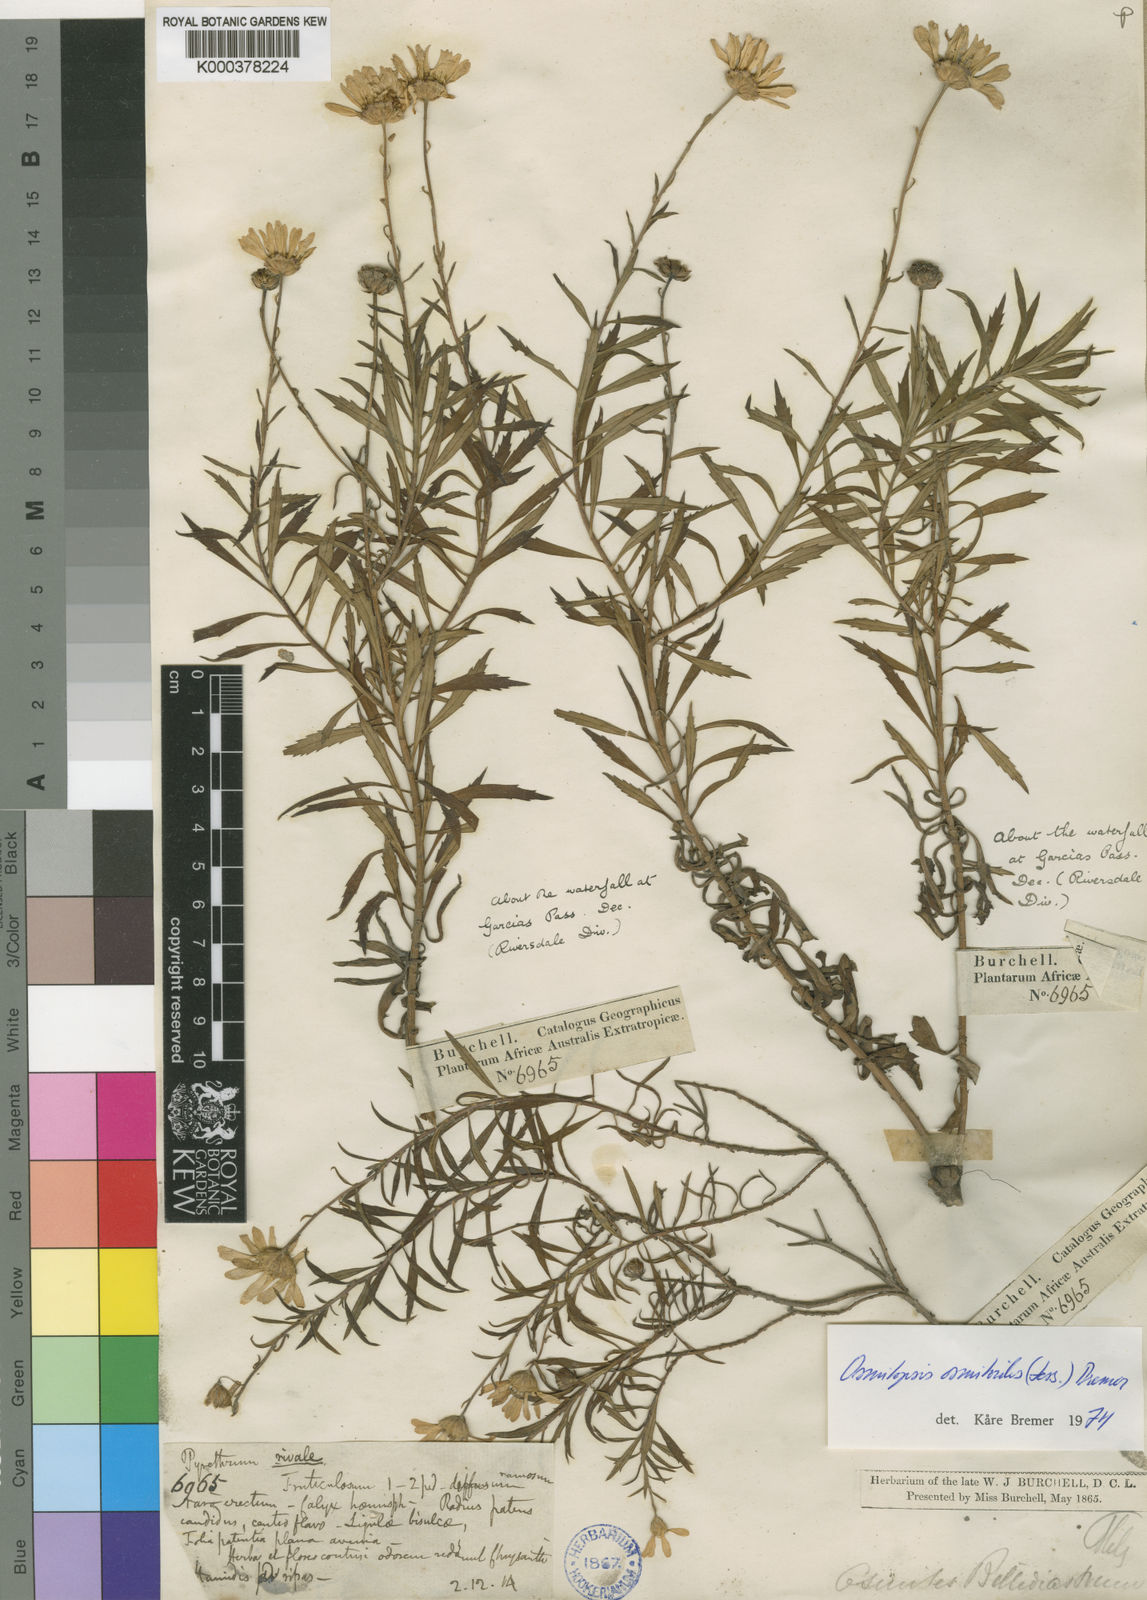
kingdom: Plantae
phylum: Tracheophyta
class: Magnoliopsida
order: Asterales
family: Asteraceae
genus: Osmitopsis
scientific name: Osmitopsis osmitoides
